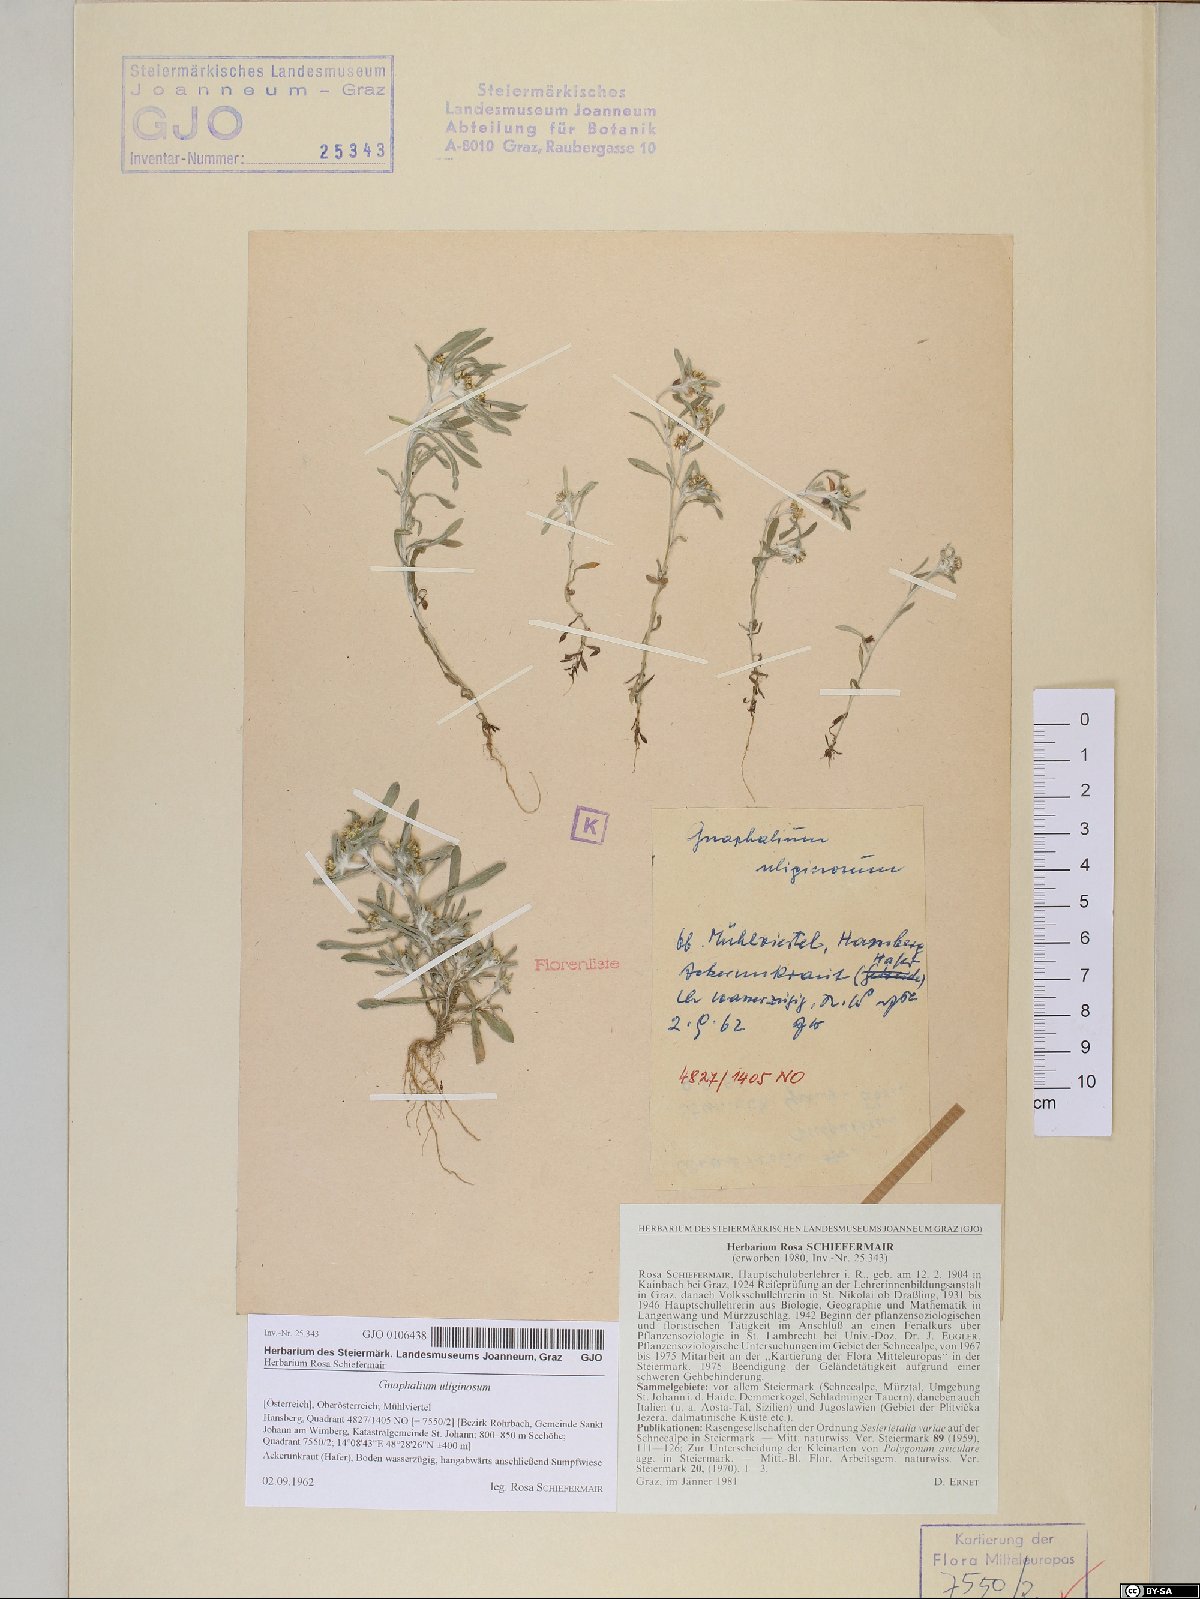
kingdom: Plantae
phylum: Tracheophyta
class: Magnoliopsida
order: Asterales
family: Asteraceae
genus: Gnaphalium
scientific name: Gnaphalium uliginosum
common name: Marsh cudweed
